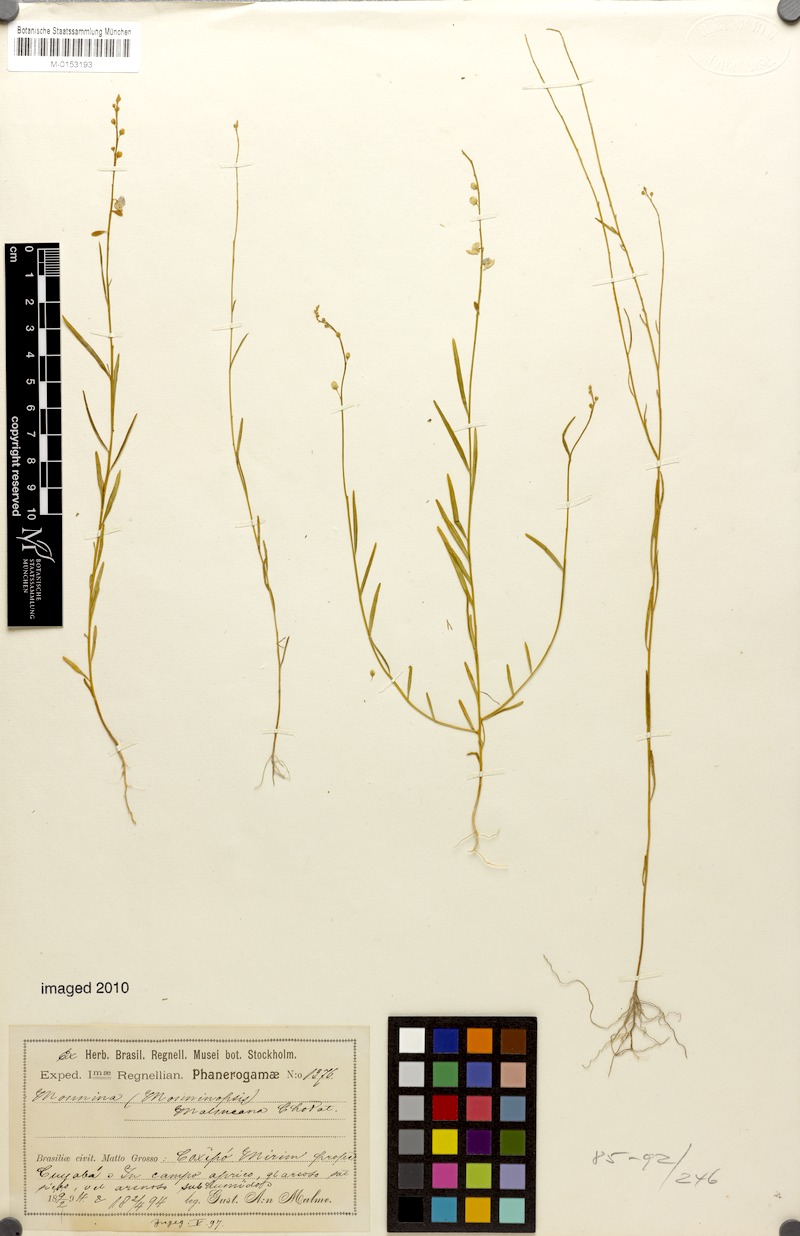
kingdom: Plantae
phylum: Tracheophyta
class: Magnoliopsida
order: Fabales
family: Polygalaceae
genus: Ancylotropis
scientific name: Ancylotropis malmeana
